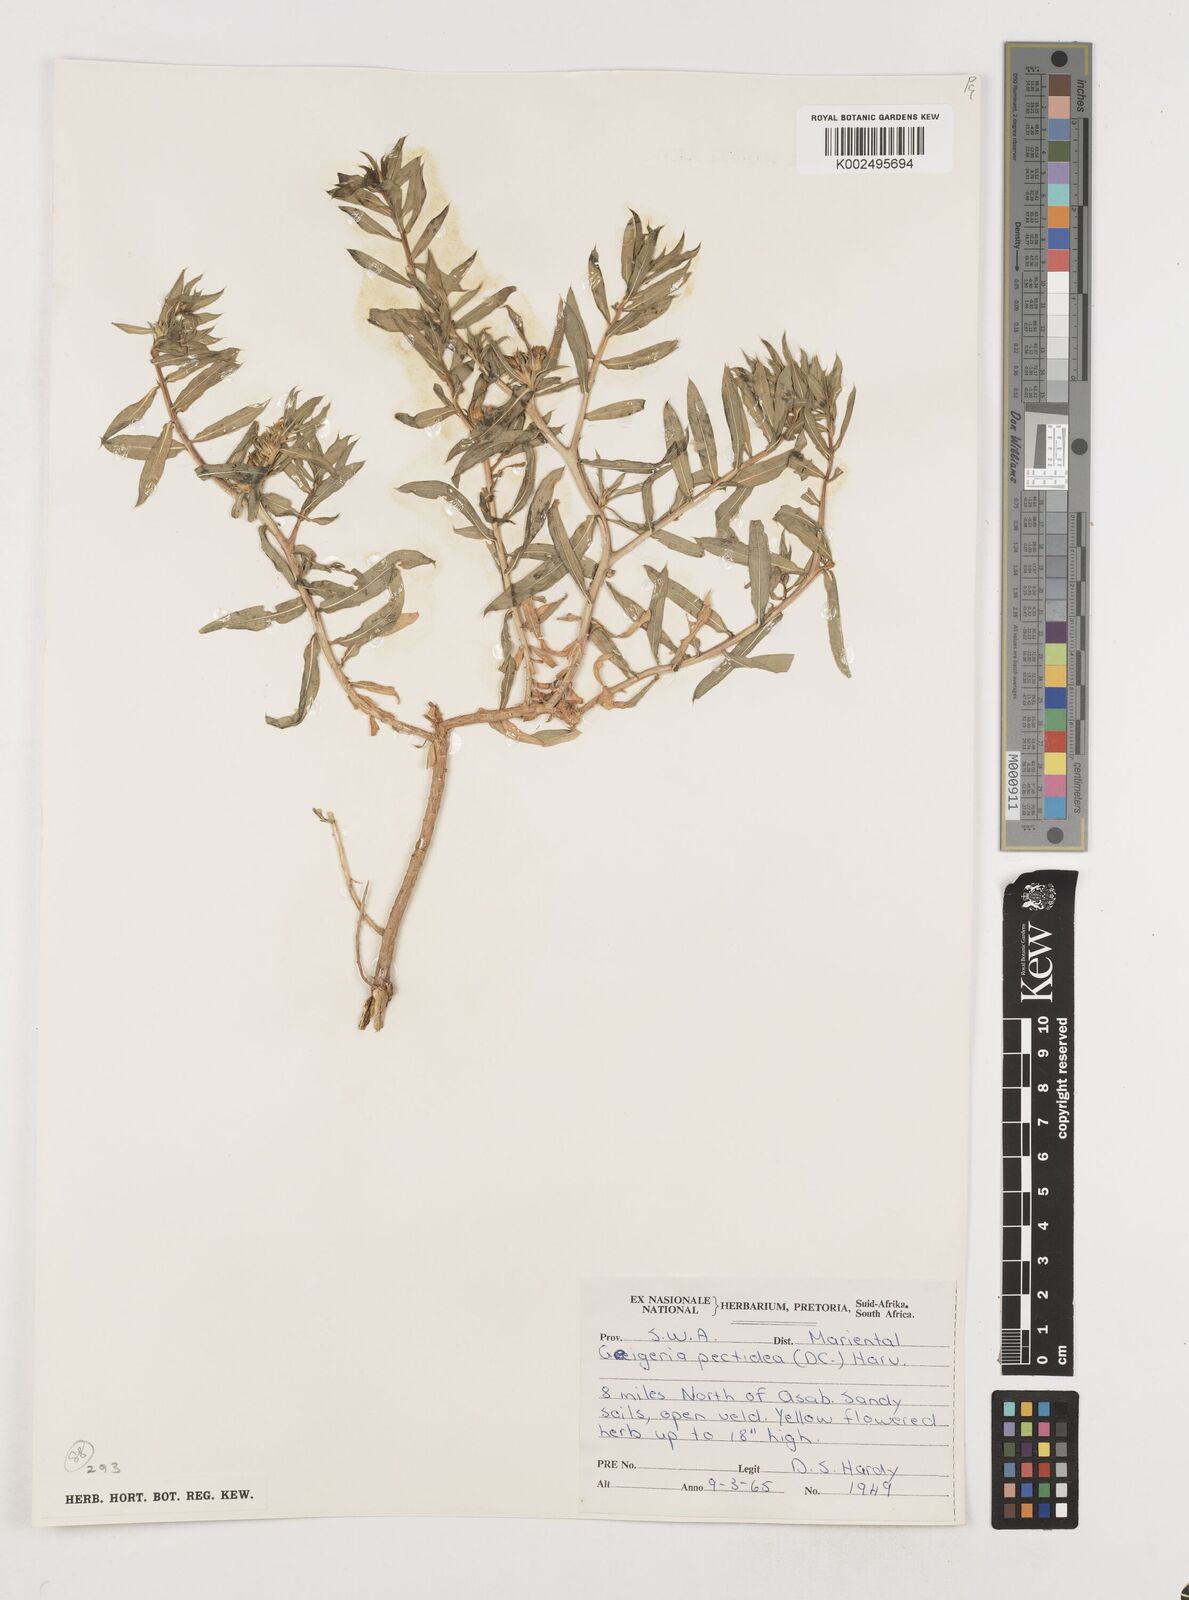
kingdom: Plantae
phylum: Tracheophyta
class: Magnoliopsida
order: Asterales
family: Asteraceae
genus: Geigeria
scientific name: Geigeria pectidea
